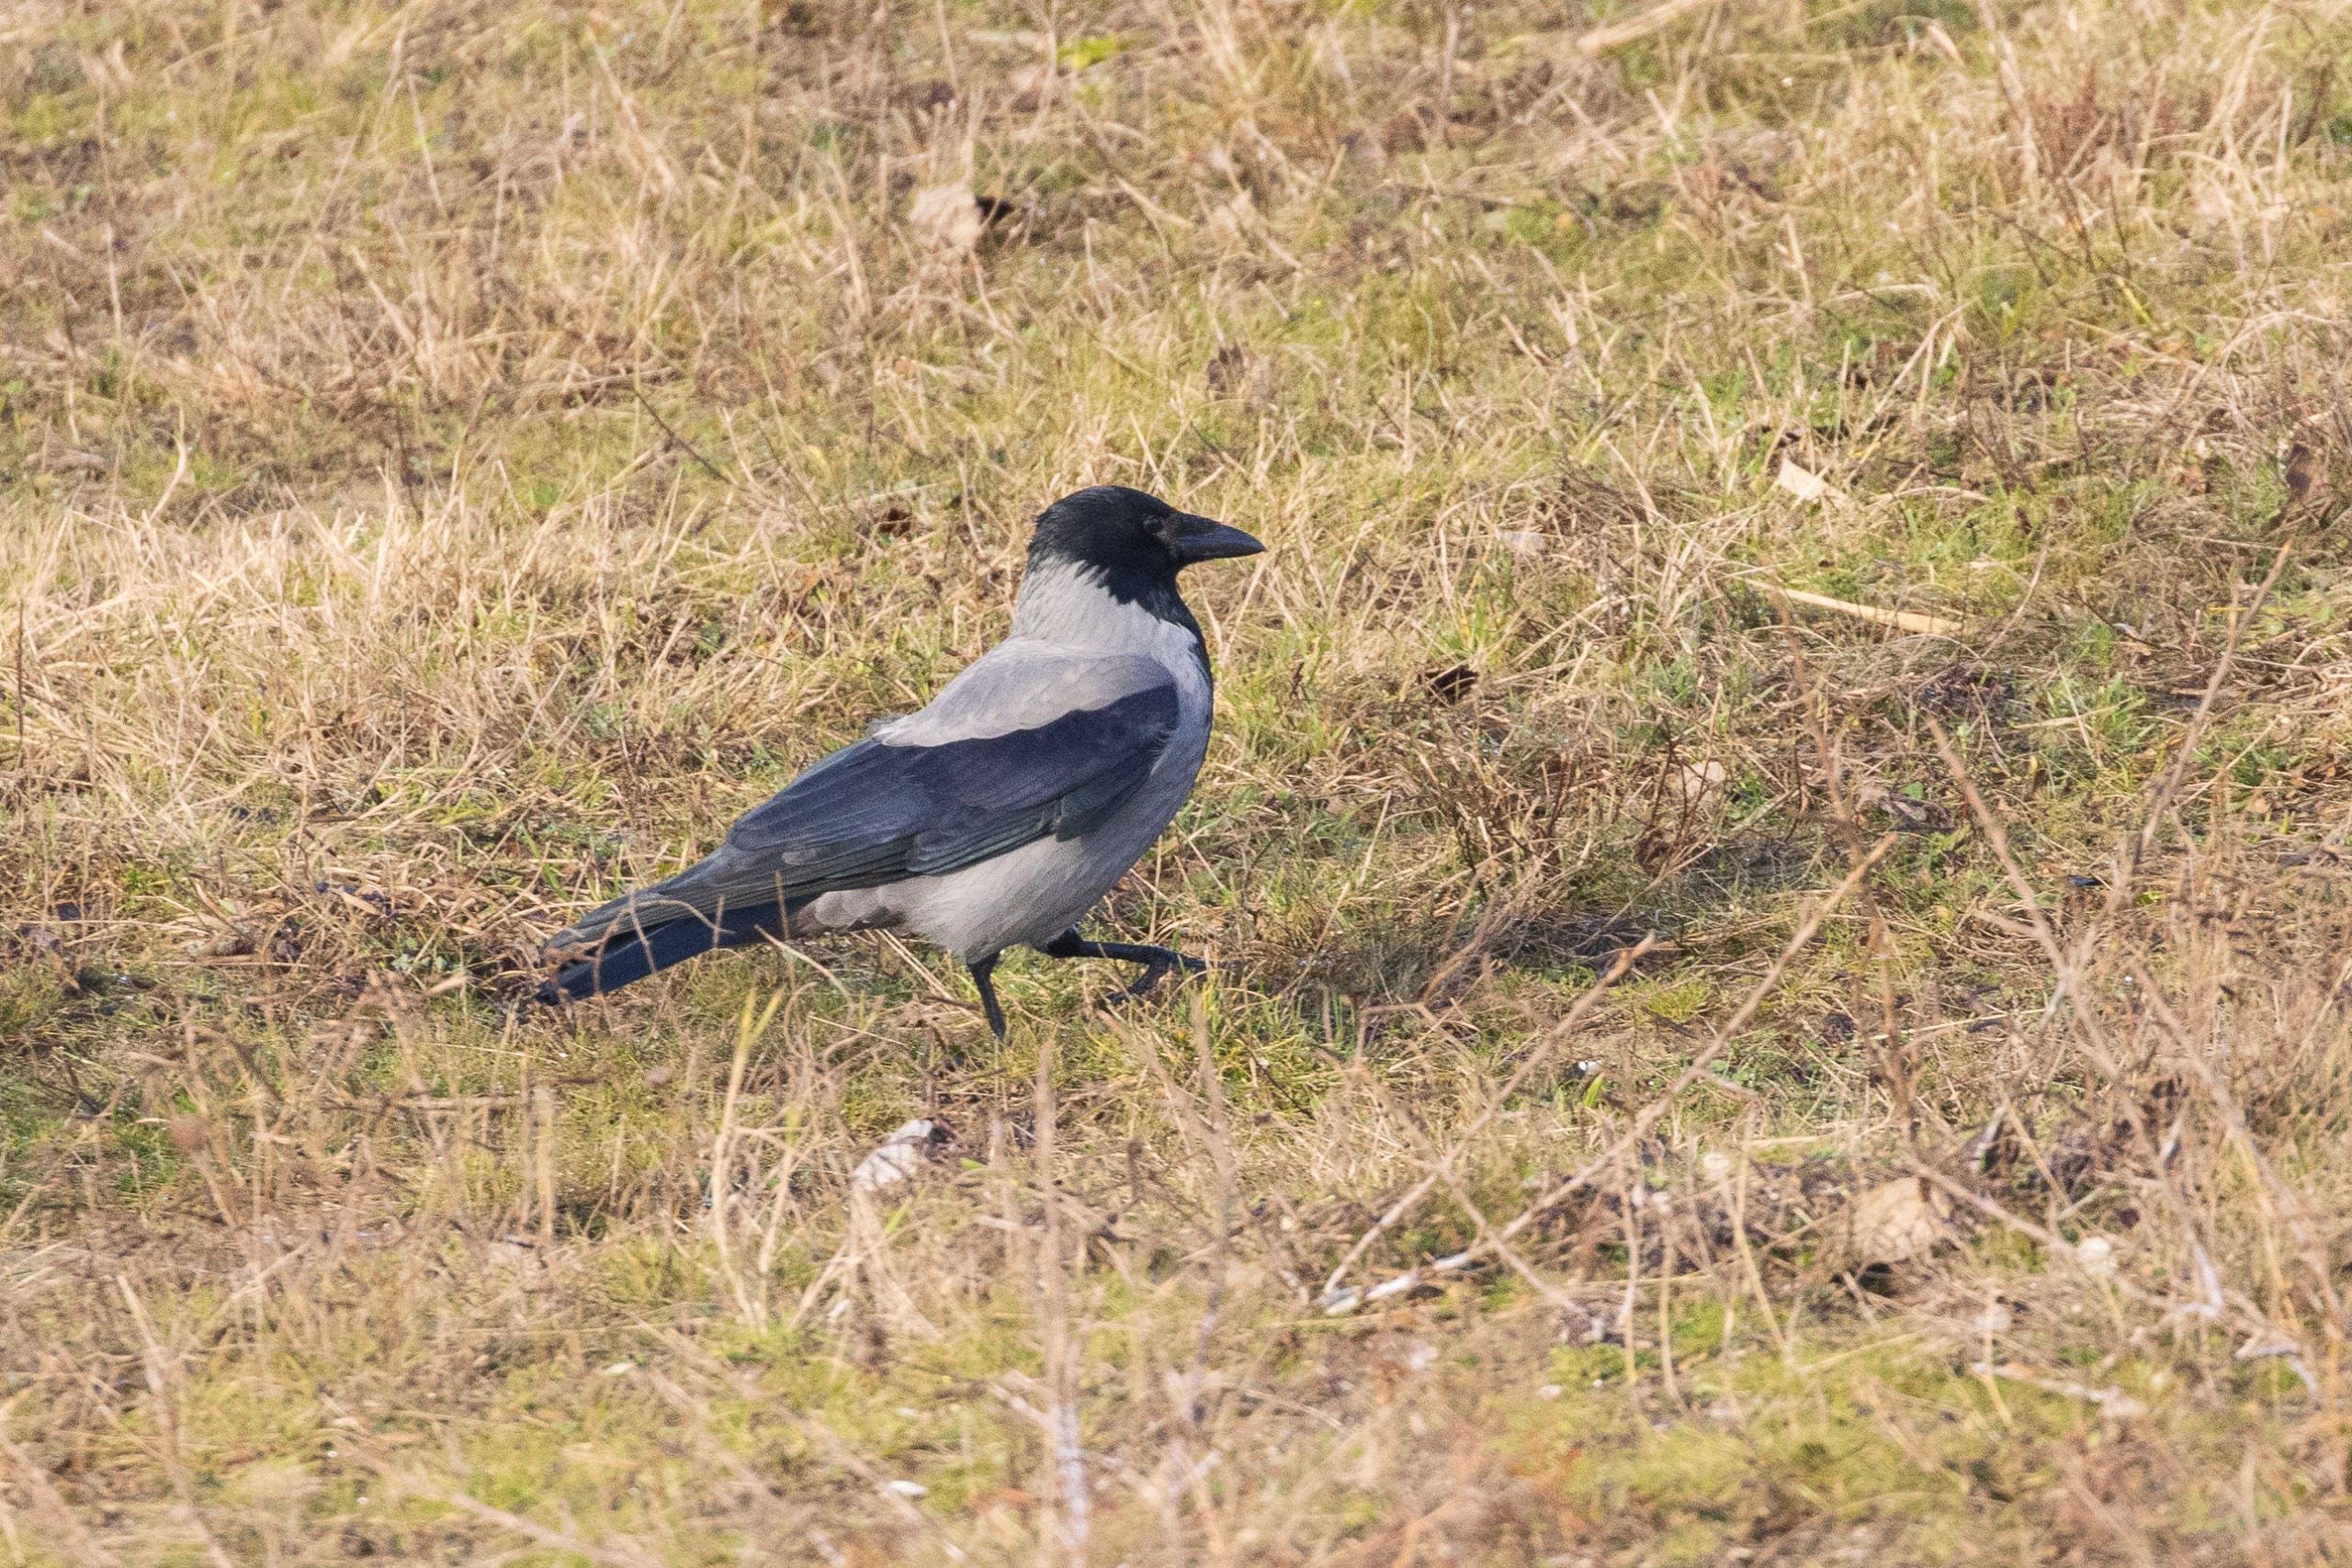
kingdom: Animalia
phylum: Chordata
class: Aves
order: Passeriformes
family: Corvidae
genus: Corvus
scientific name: Corvus cornix
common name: Gråkrage
